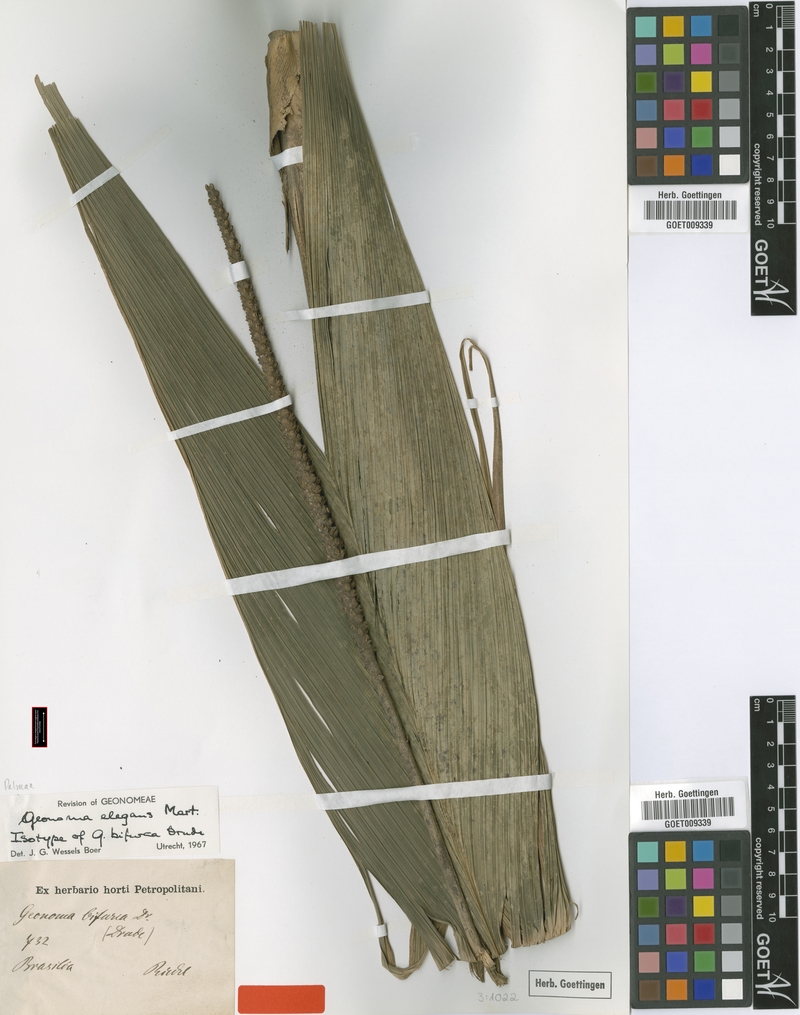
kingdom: Plantae
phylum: Tracheophyta
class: Liliopsida
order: Arecales
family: Arecaceae
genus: Geonoma
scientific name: Geonoma elegans
